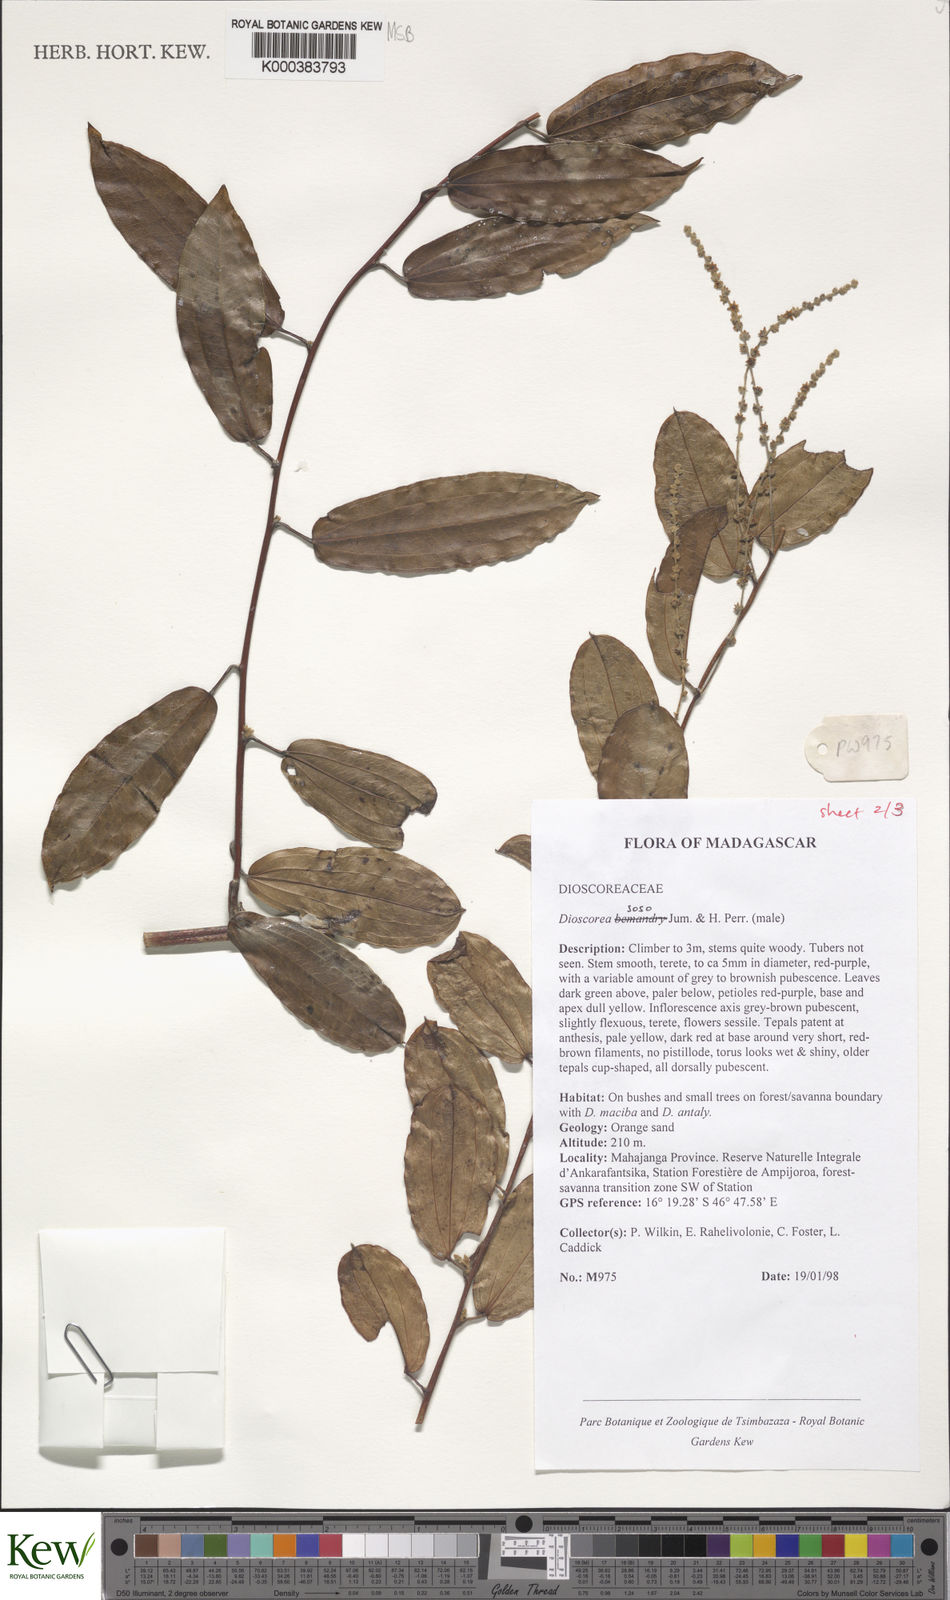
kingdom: Plantae
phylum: Tracheophyta
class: Liliopsida
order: Dioscoreales
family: Dioscoreaceae
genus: Dioscorea
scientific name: Dioscorea
